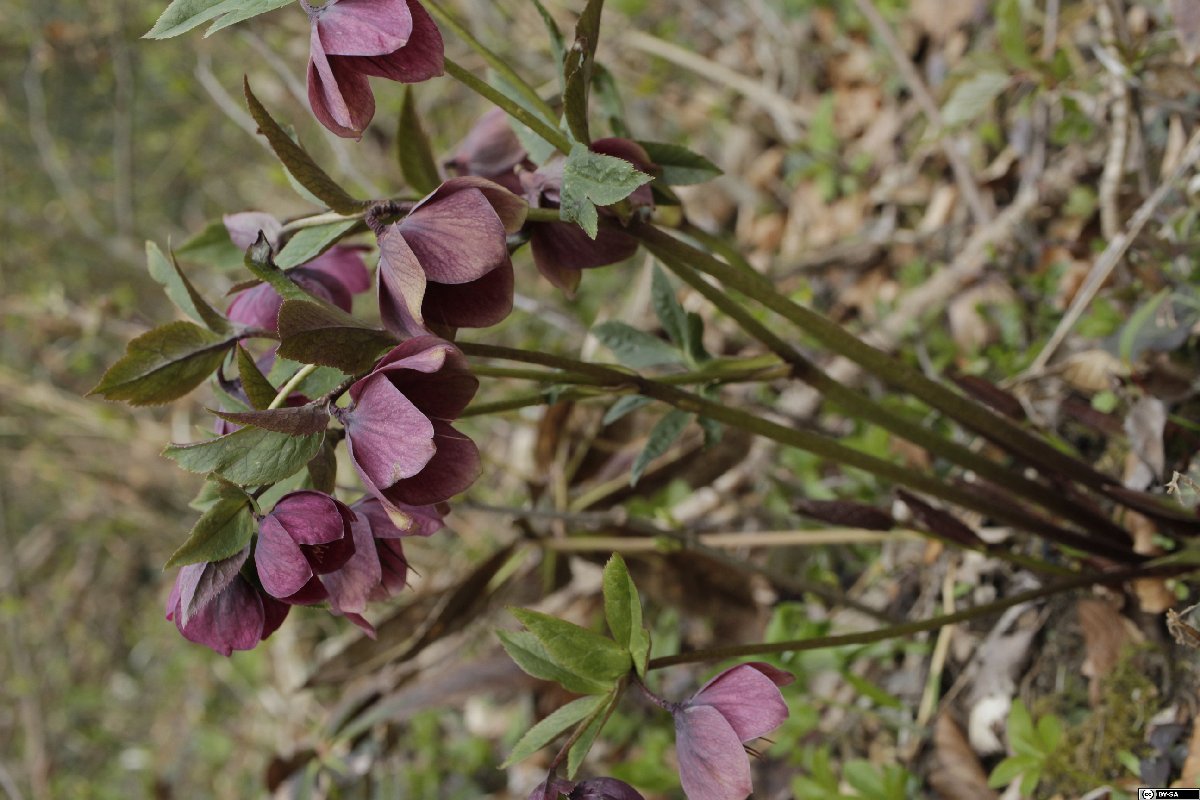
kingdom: Plantae
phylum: Tracheophyta
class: Magnoliopsida
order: Ranunculales
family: Ranunculaceae
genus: Helleborus
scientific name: Helleborus orientalis
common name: Lenten-rose
